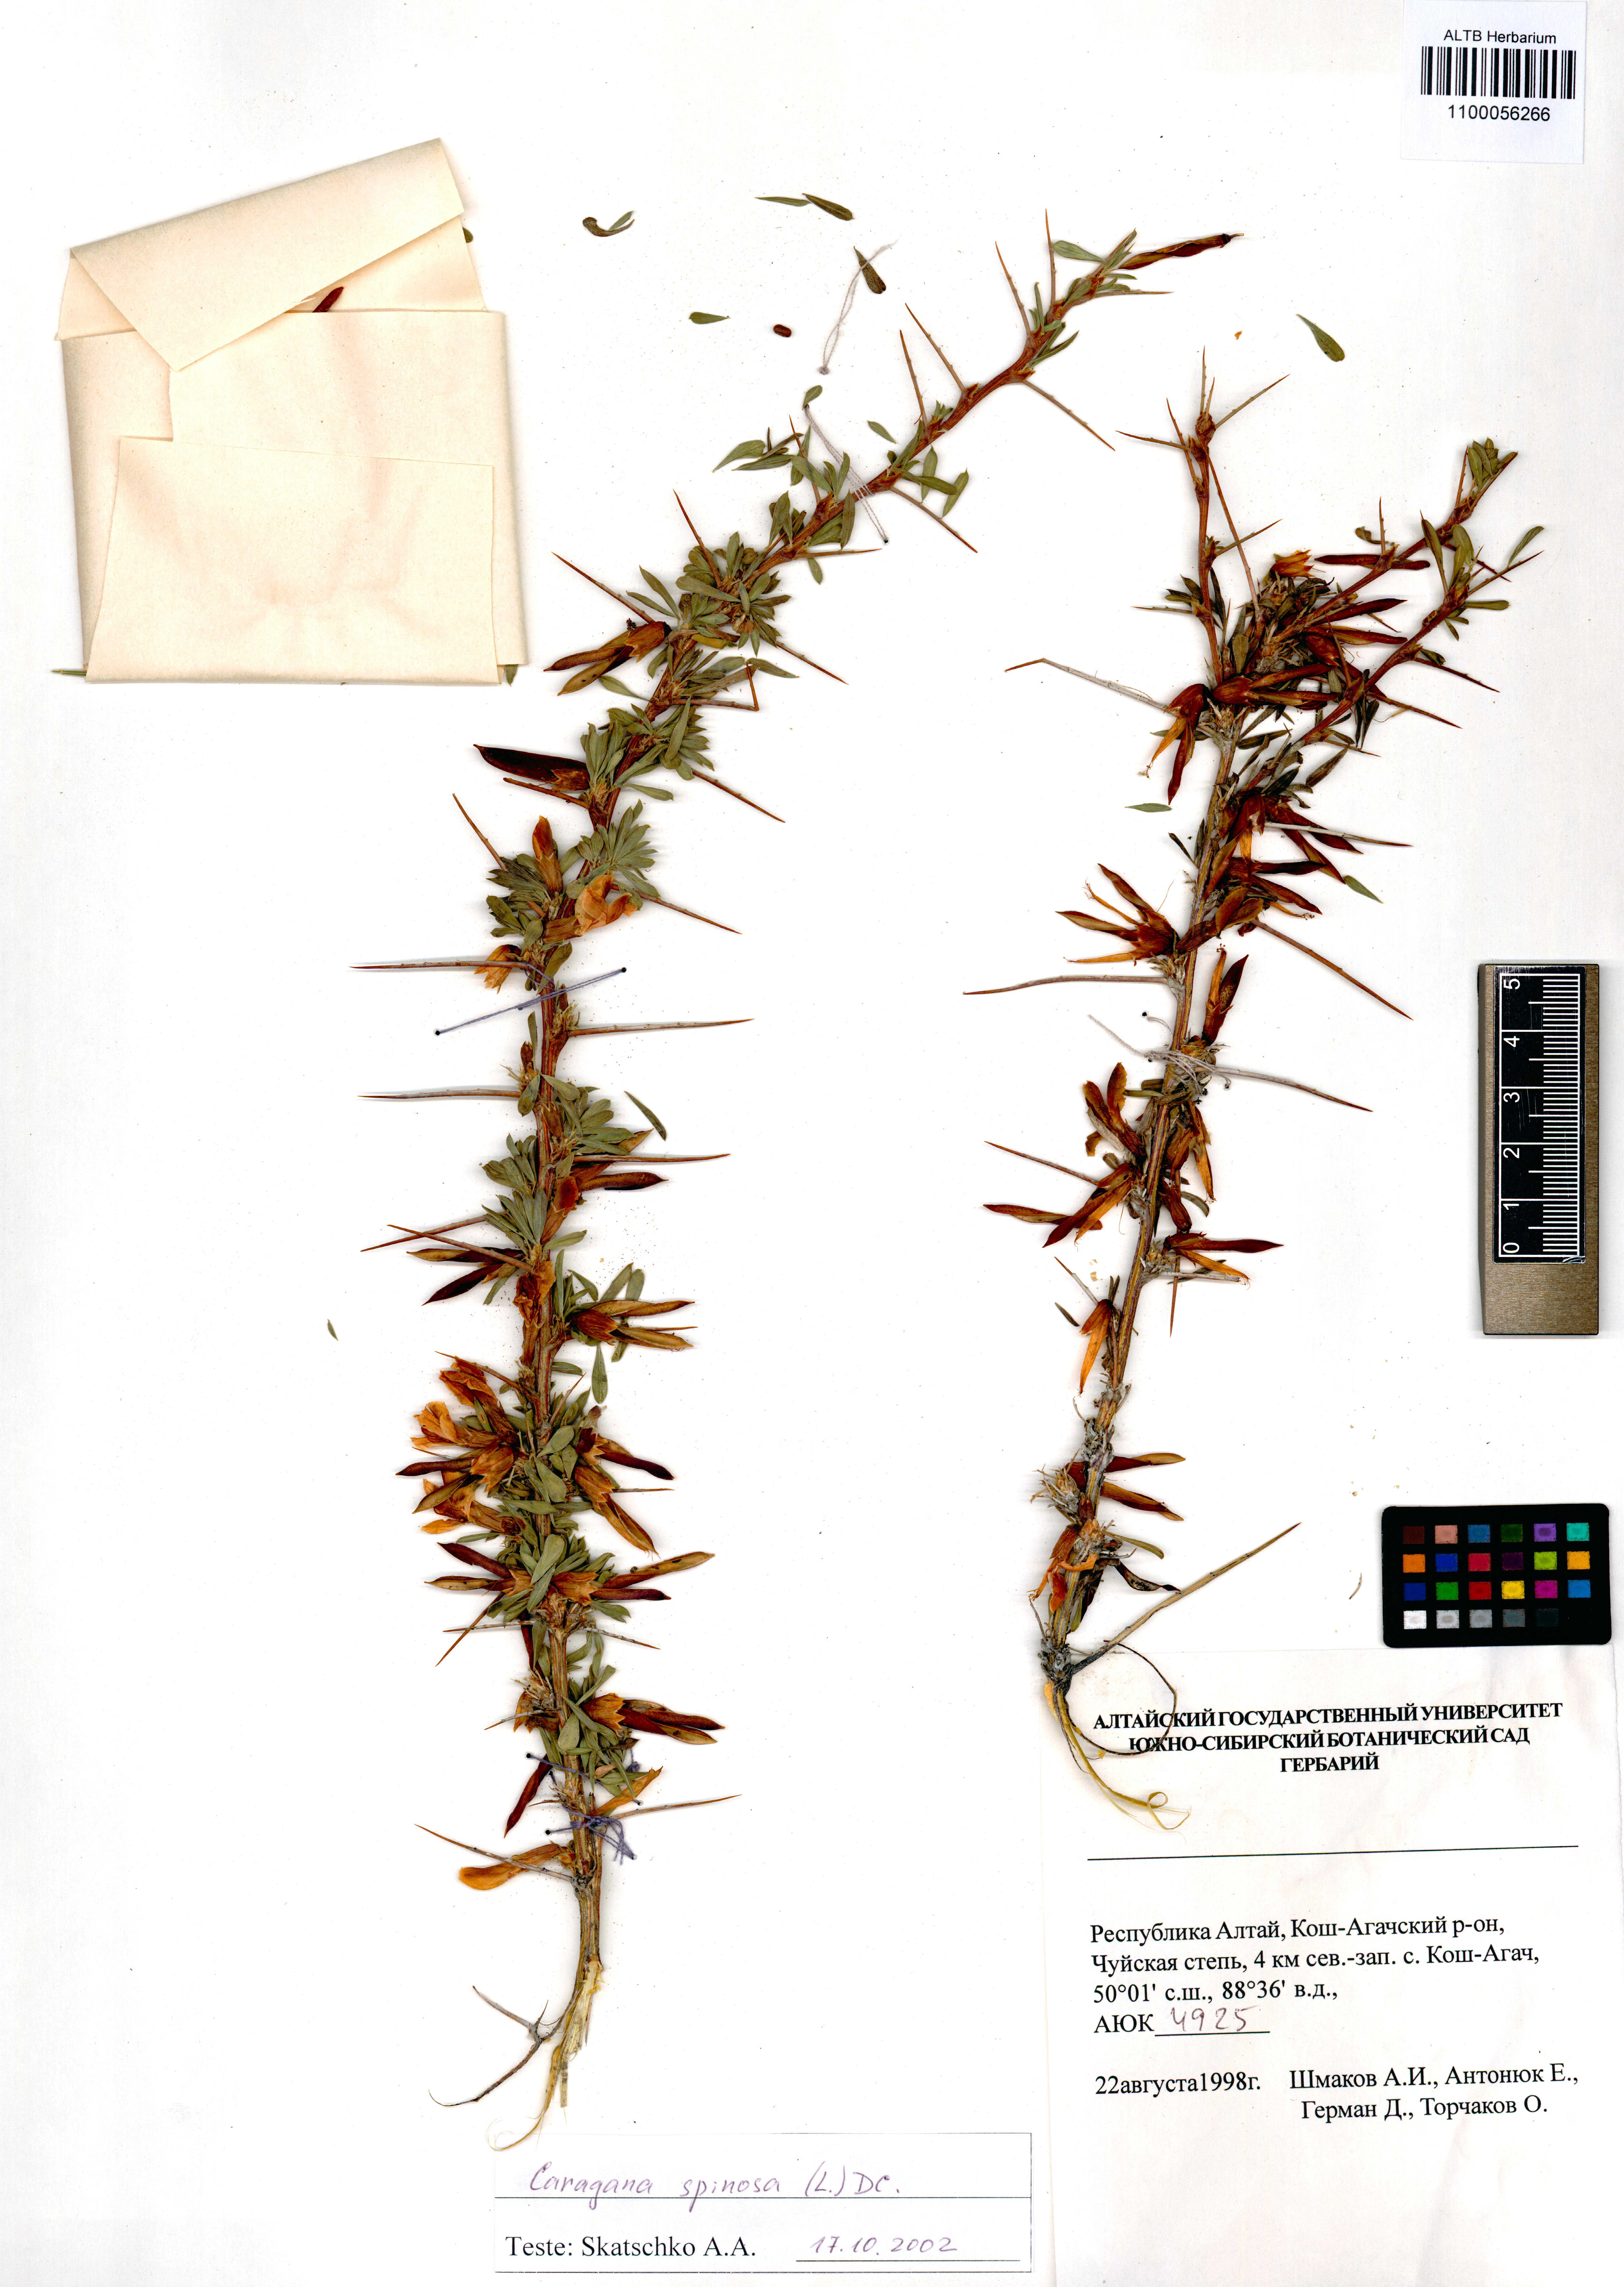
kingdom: Plantae
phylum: Tracheophyta
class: Magnoliopsida
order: Fabales
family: Fabaceae
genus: Caragana
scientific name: Caragana spinosa
